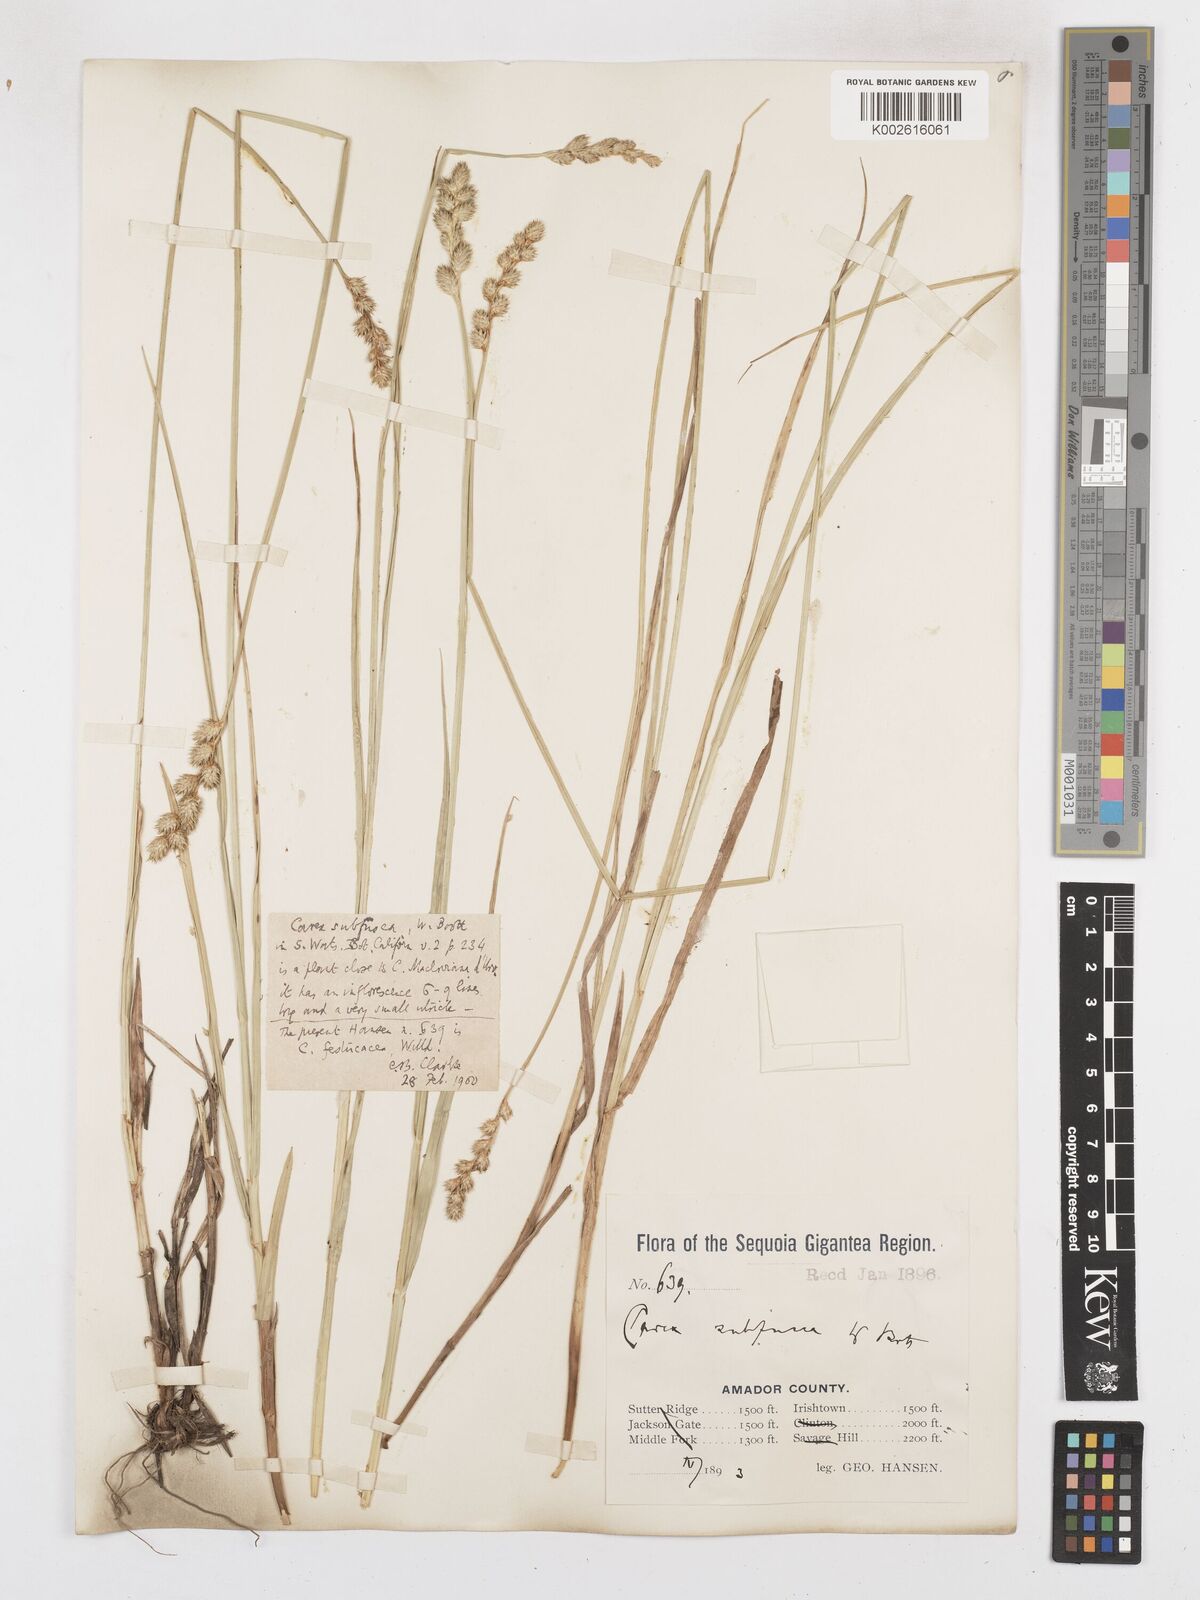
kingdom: Plantae
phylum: Tracheophyta
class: Liliopsida
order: Poales
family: Cyperaceae
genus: Carex
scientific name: Carex festucacea
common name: Fescue oval sedge
